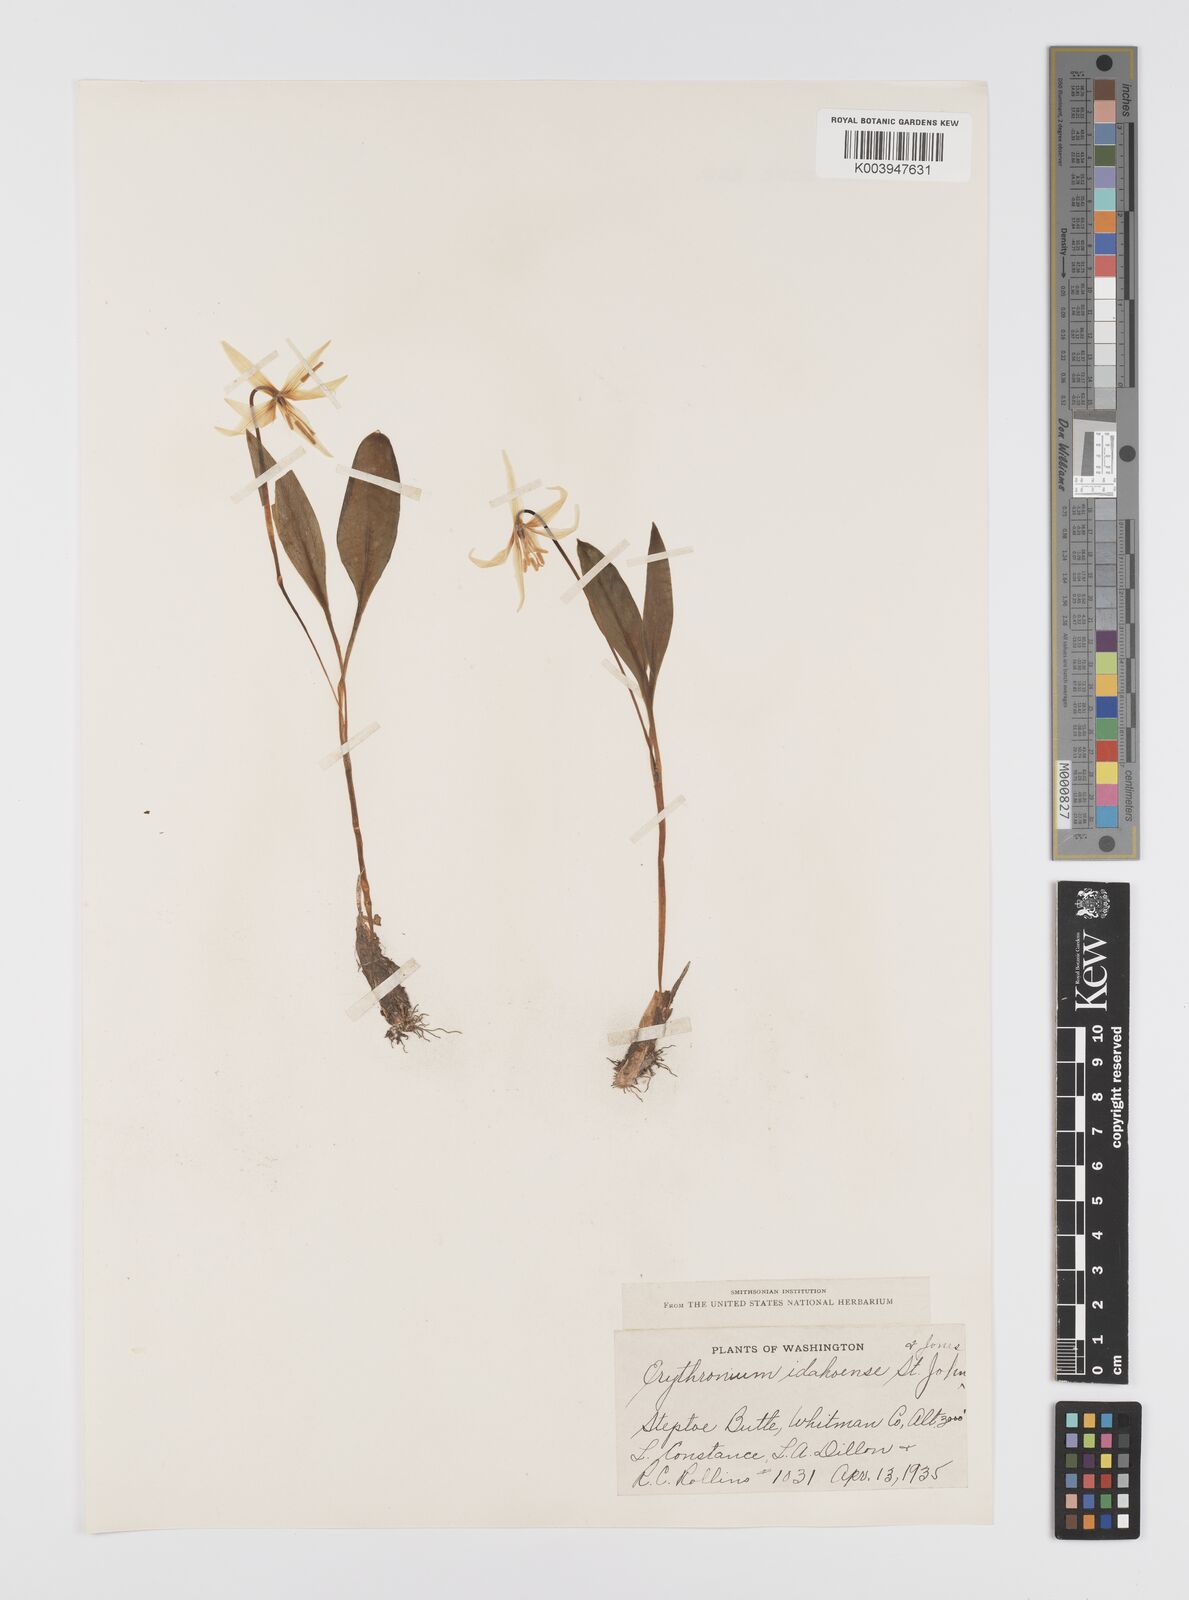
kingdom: Plantae
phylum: Tracheophyta
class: Liliopsida
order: Liliales
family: Liliaceae
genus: Erythronium
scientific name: Erythronium idahoense
